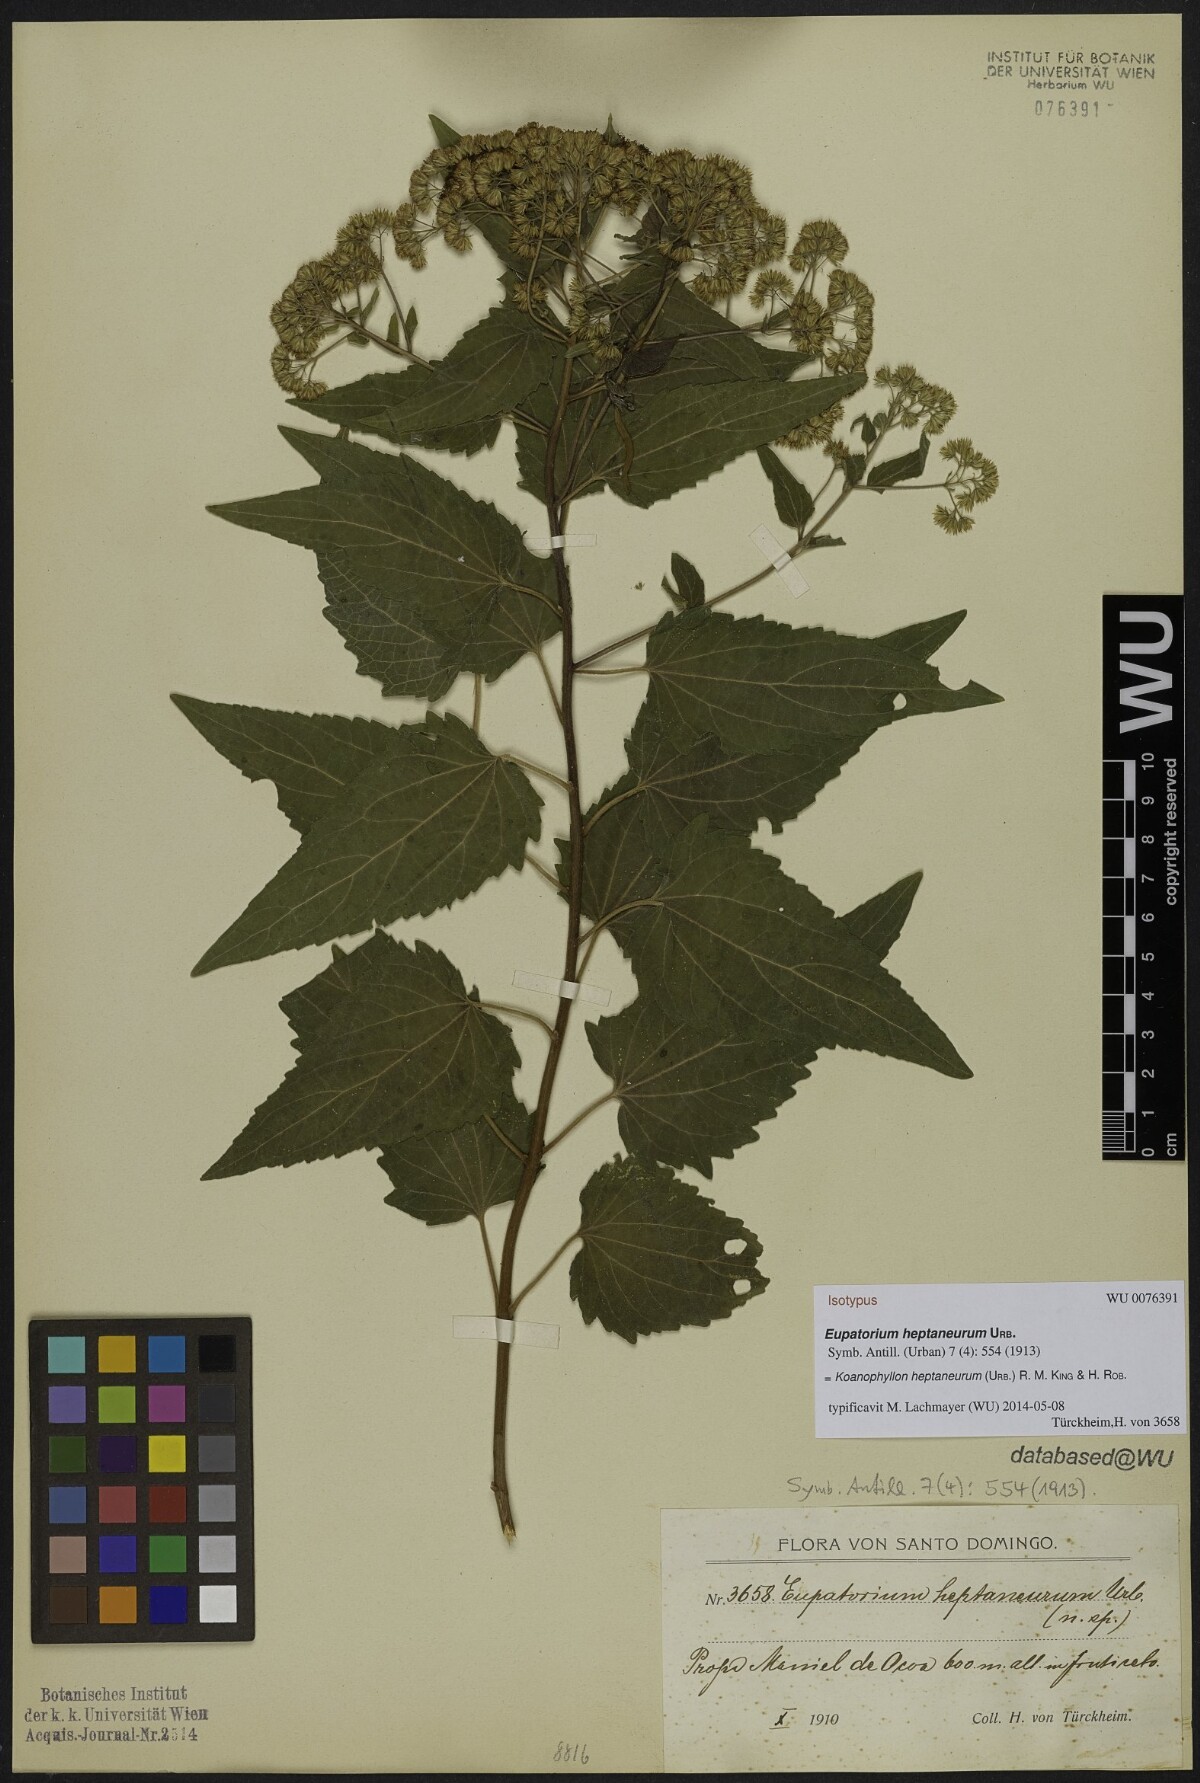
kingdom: Plantae
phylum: Tracheophyta
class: Magnoliopsida
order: Asterales
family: Asteraceae
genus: Koanophyllon
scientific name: Koanophyllon heptaneurum
